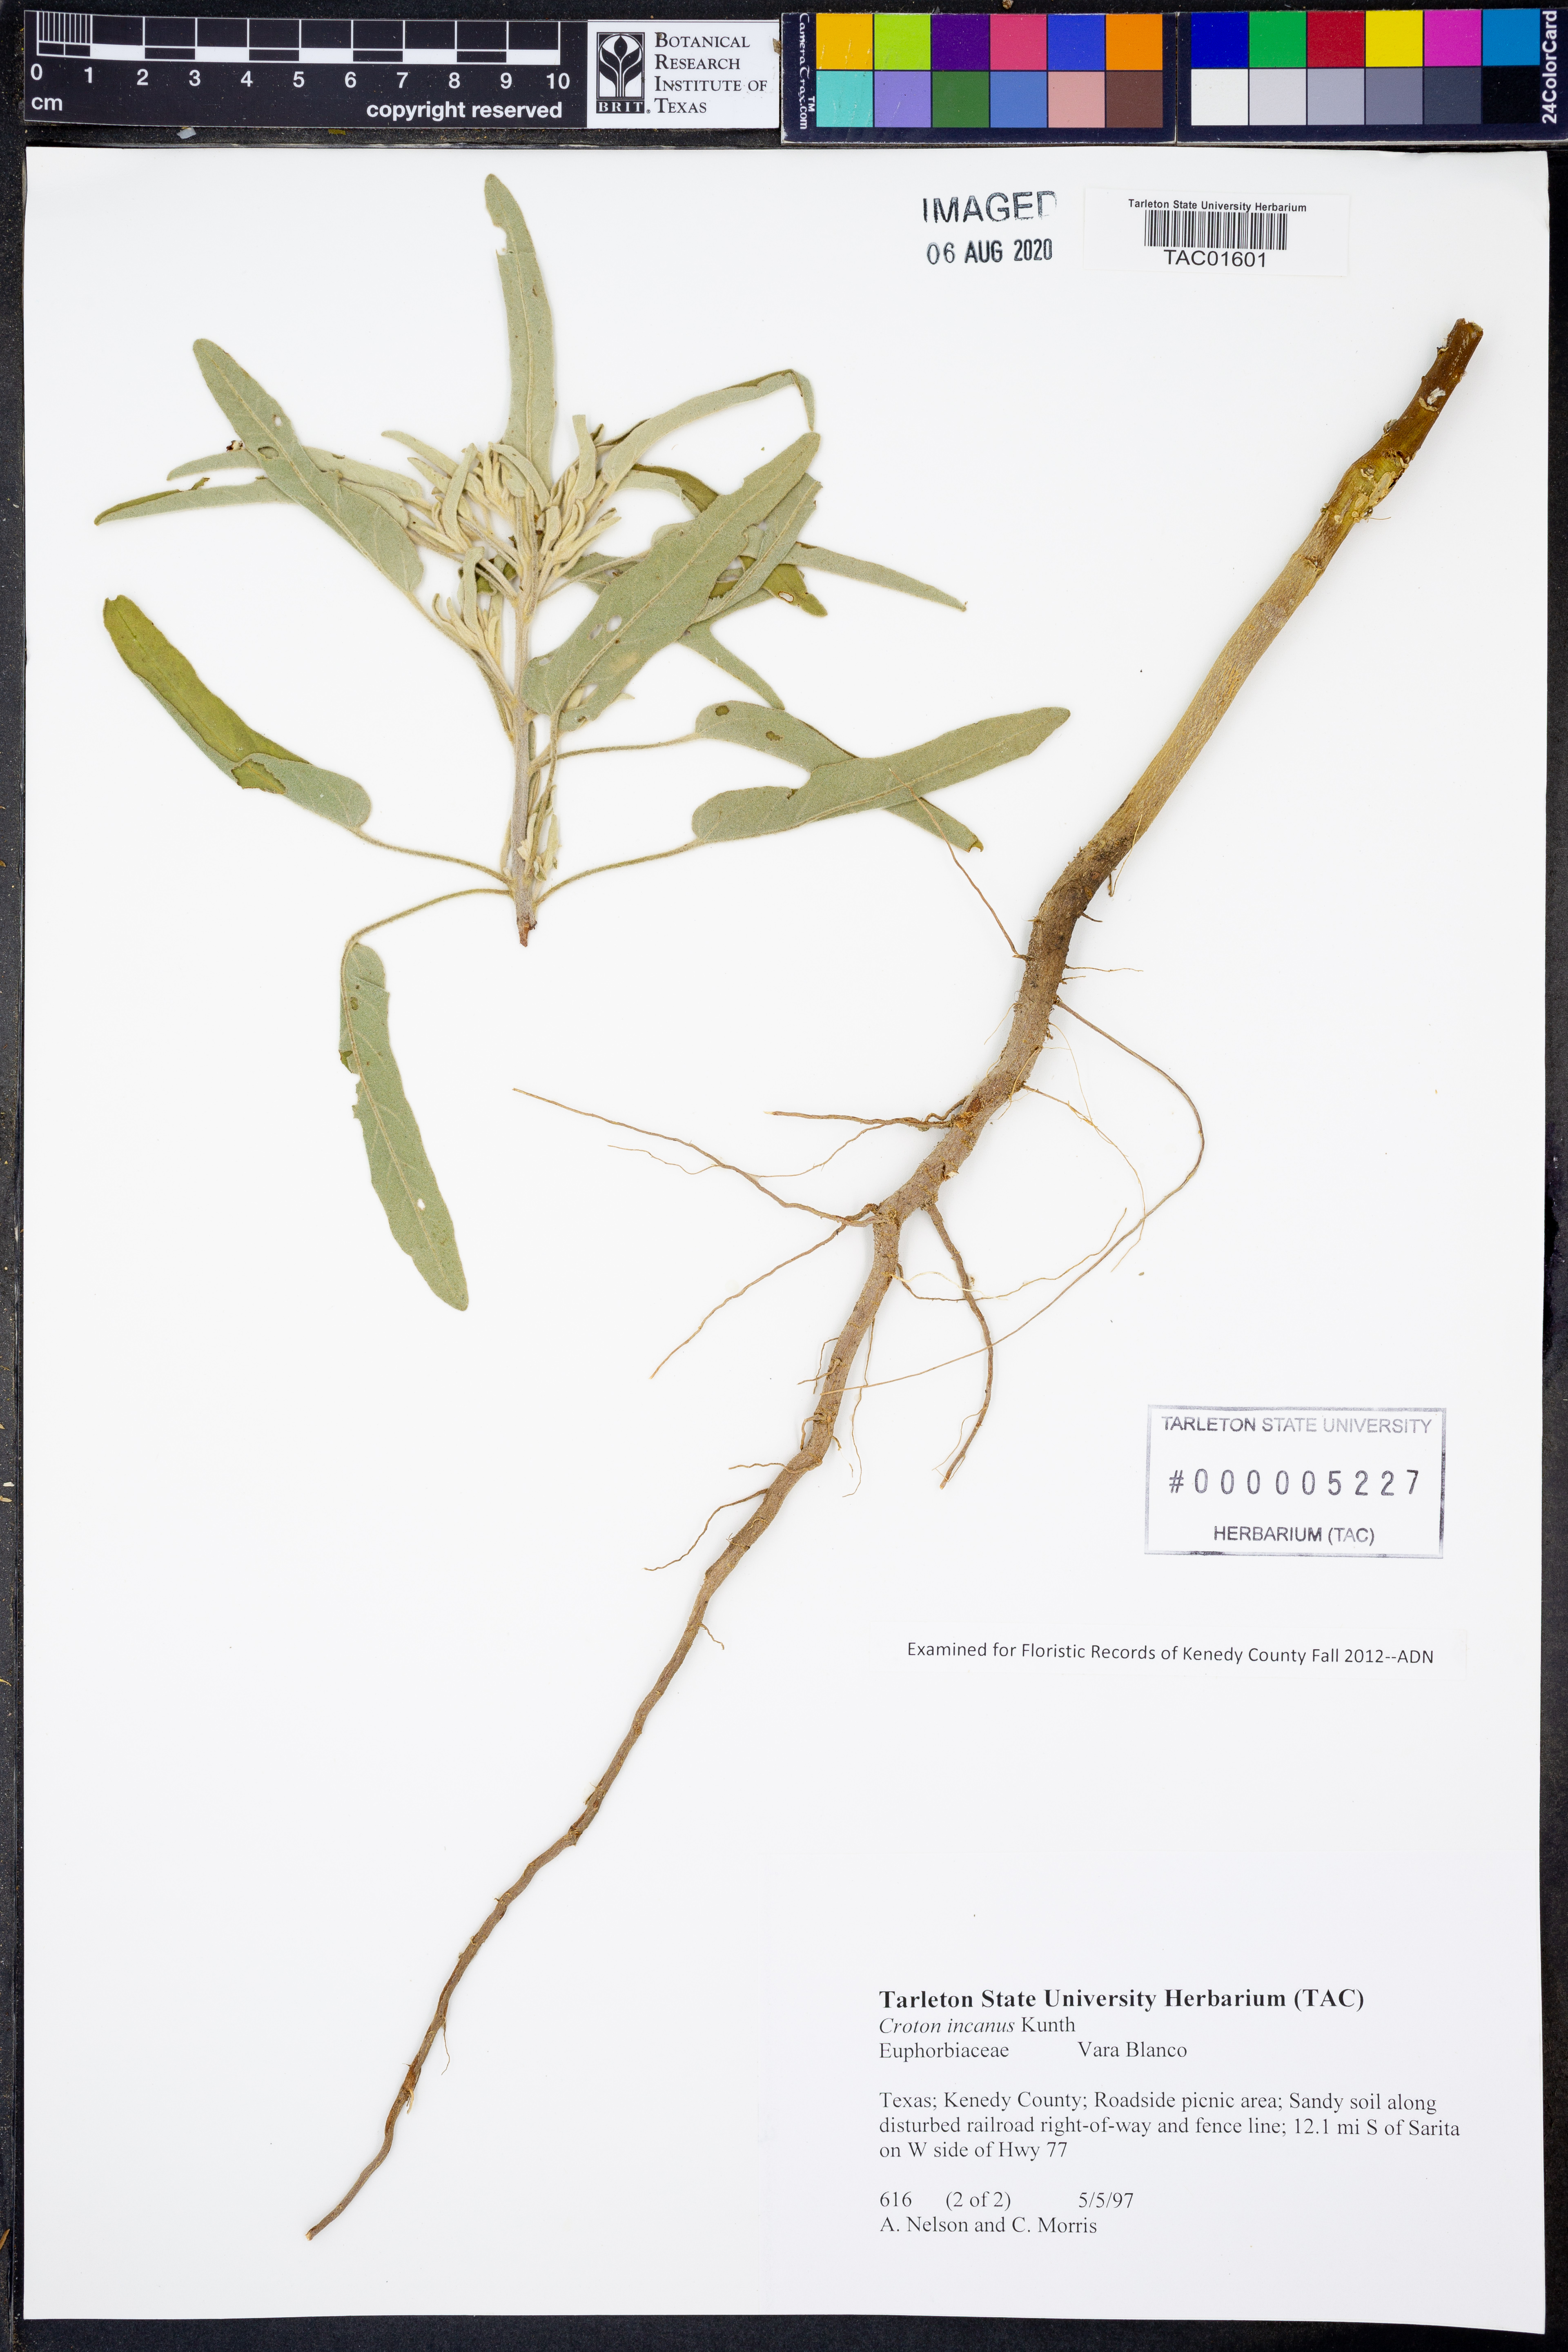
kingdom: Plantae
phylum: Tracheophyta
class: Magnoliopsida
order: Malpighiales
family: Euphorbiaceae
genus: Croton
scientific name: Croton incanus
